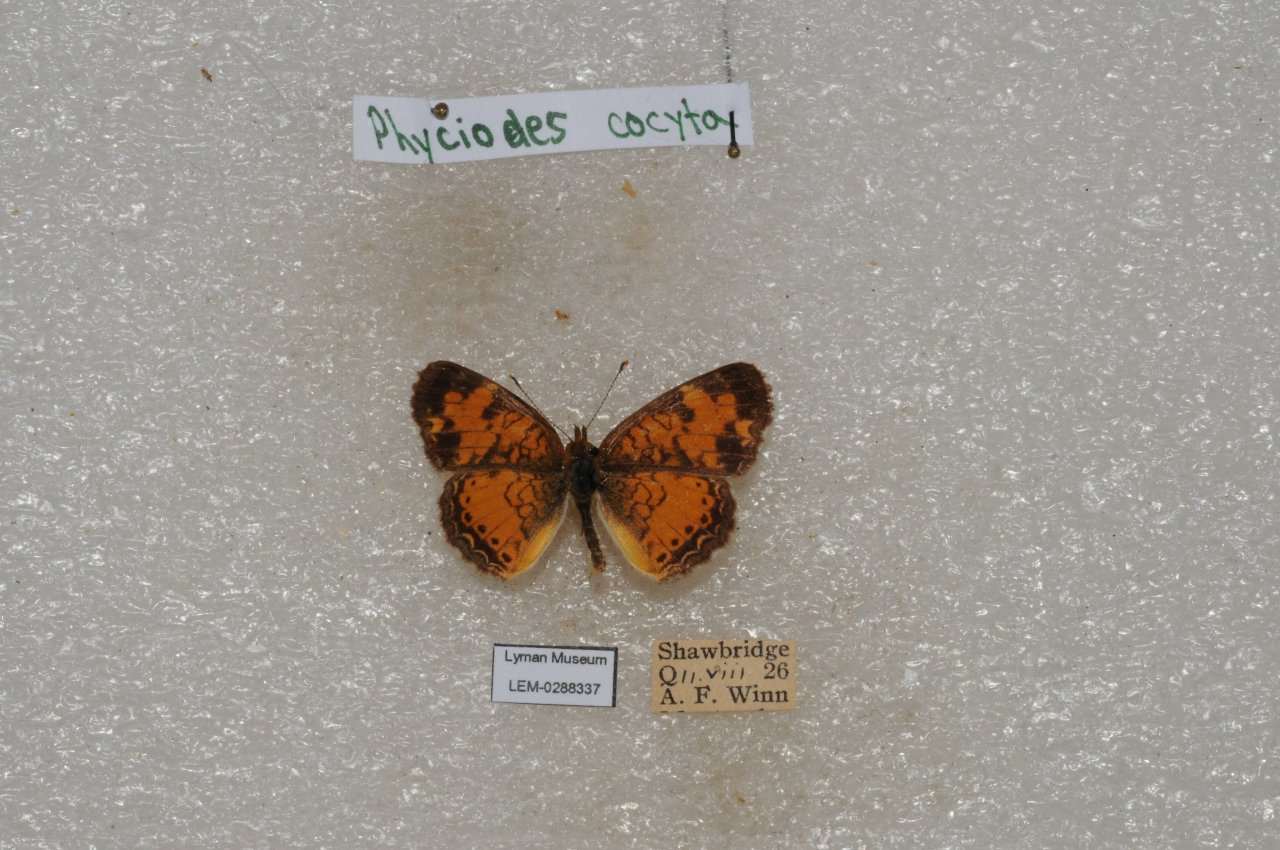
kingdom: Animalia
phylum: Arthropoda
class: Insecta
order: Lepidoptera
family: Nymphalidae
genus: Phyciodes
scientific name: Phyciodes tharos
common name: Northern Crescent
